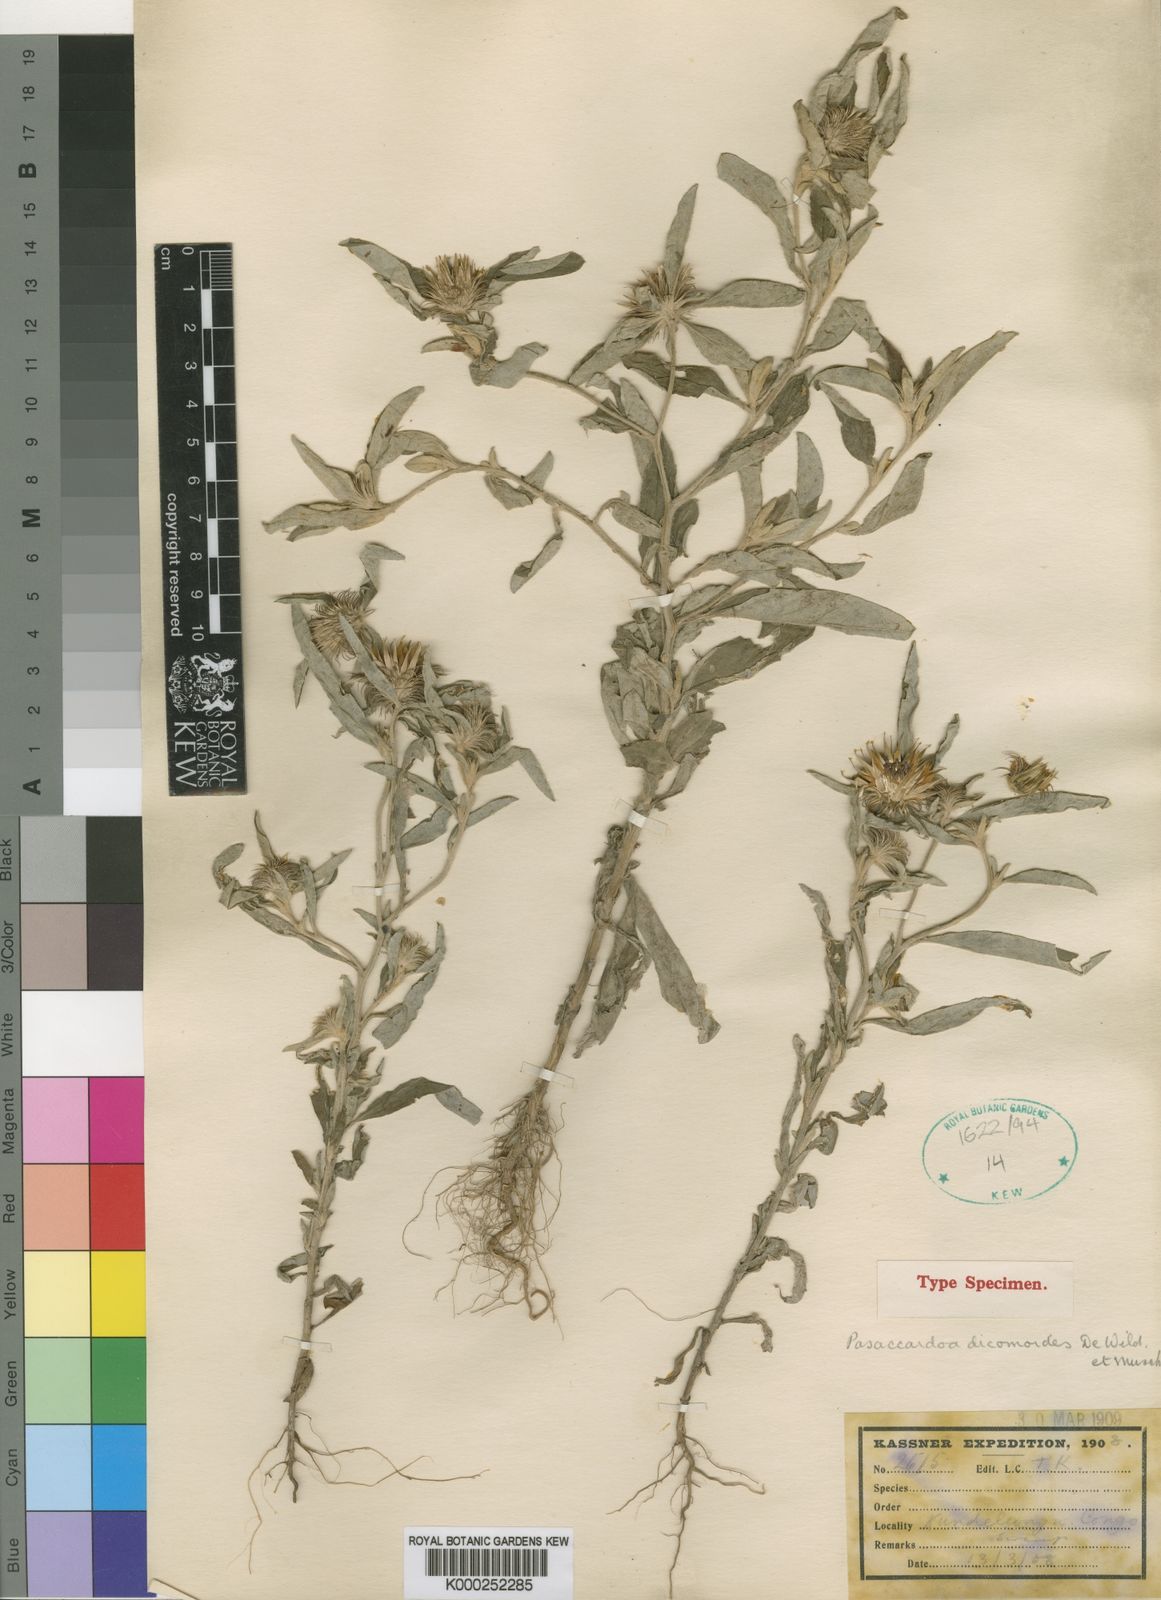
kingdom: Plantae
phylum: Tracheophyta
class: Magnoliopsida
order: Asterales
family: Asteraceae
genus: Pasaccardoa
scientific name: Pasaccardoa grantii
